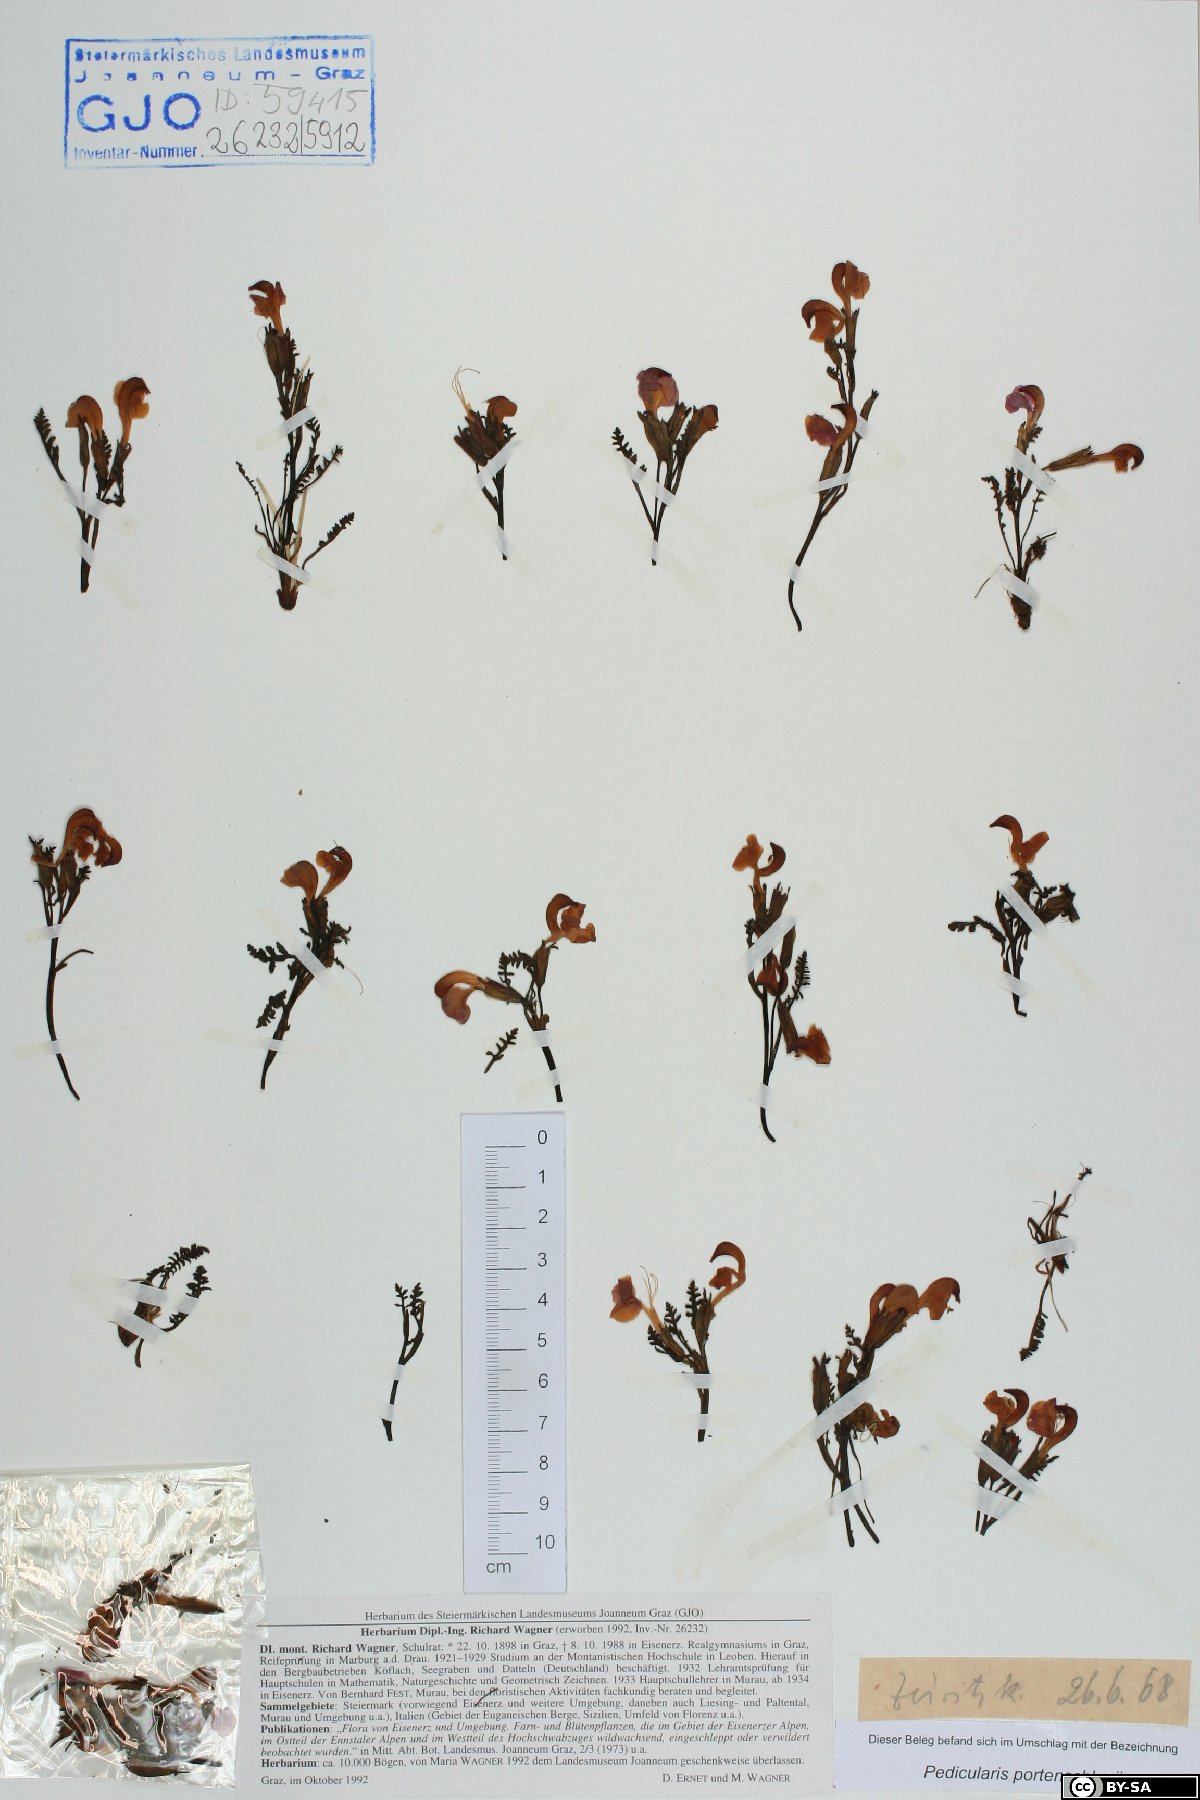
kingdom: Plantae
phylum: Tracheophyta
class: Magnoliopsida
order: Lamiales
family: Orobanchaceae
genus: Pedicularis
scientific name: Pedicularis portenschlagii
